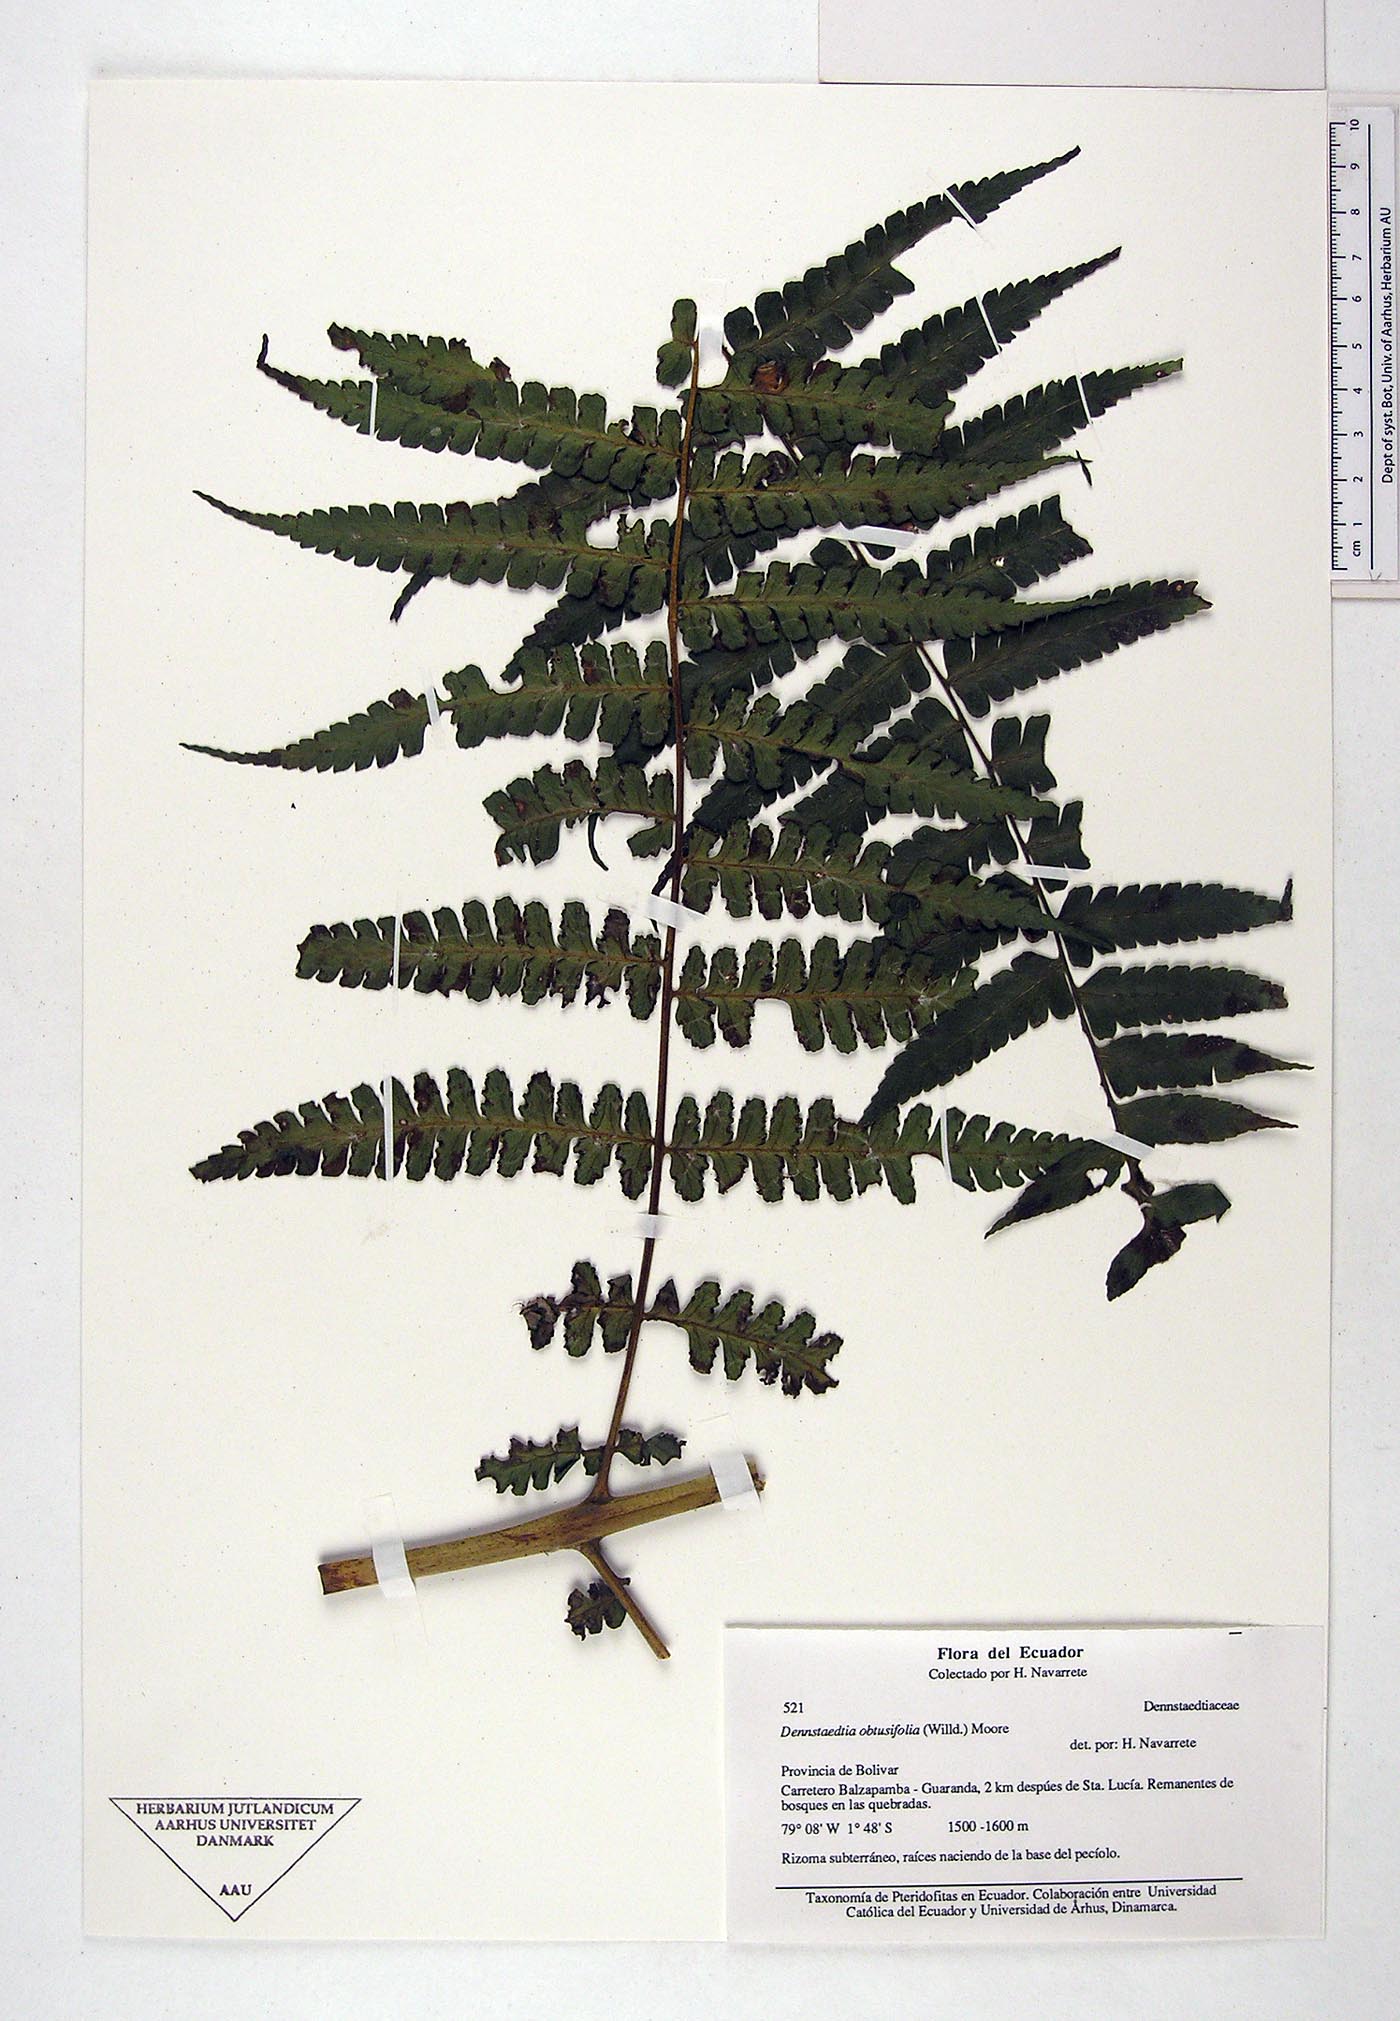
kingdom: Plantae
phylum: Tracheophyta
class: Polypodiopsida
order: Polypodiales
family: Dennstaedtiaceae
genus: Dennstaedtia
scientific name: Dennstaedtia obtusifolia
